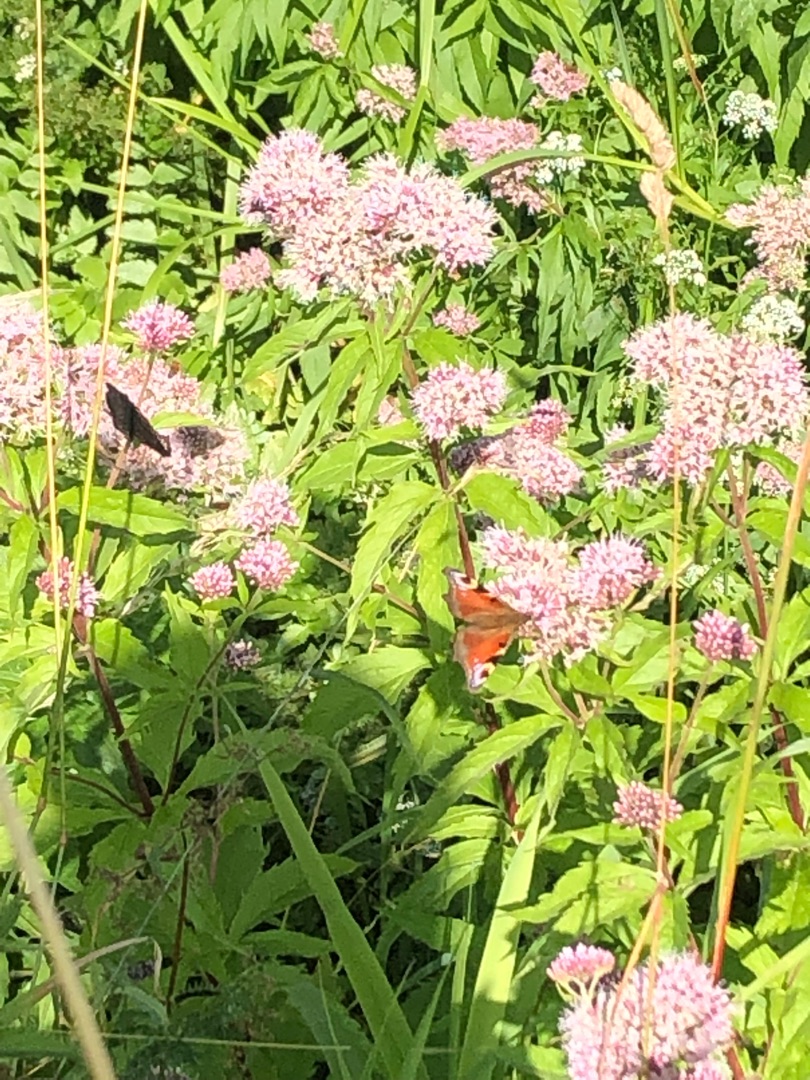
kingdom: Animalia
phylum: Arthropoda
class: Insecta
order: Lepidoptera
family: Nymphalidae
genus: Aglais
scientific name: Aglais io
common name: Dagpåfugleøje
